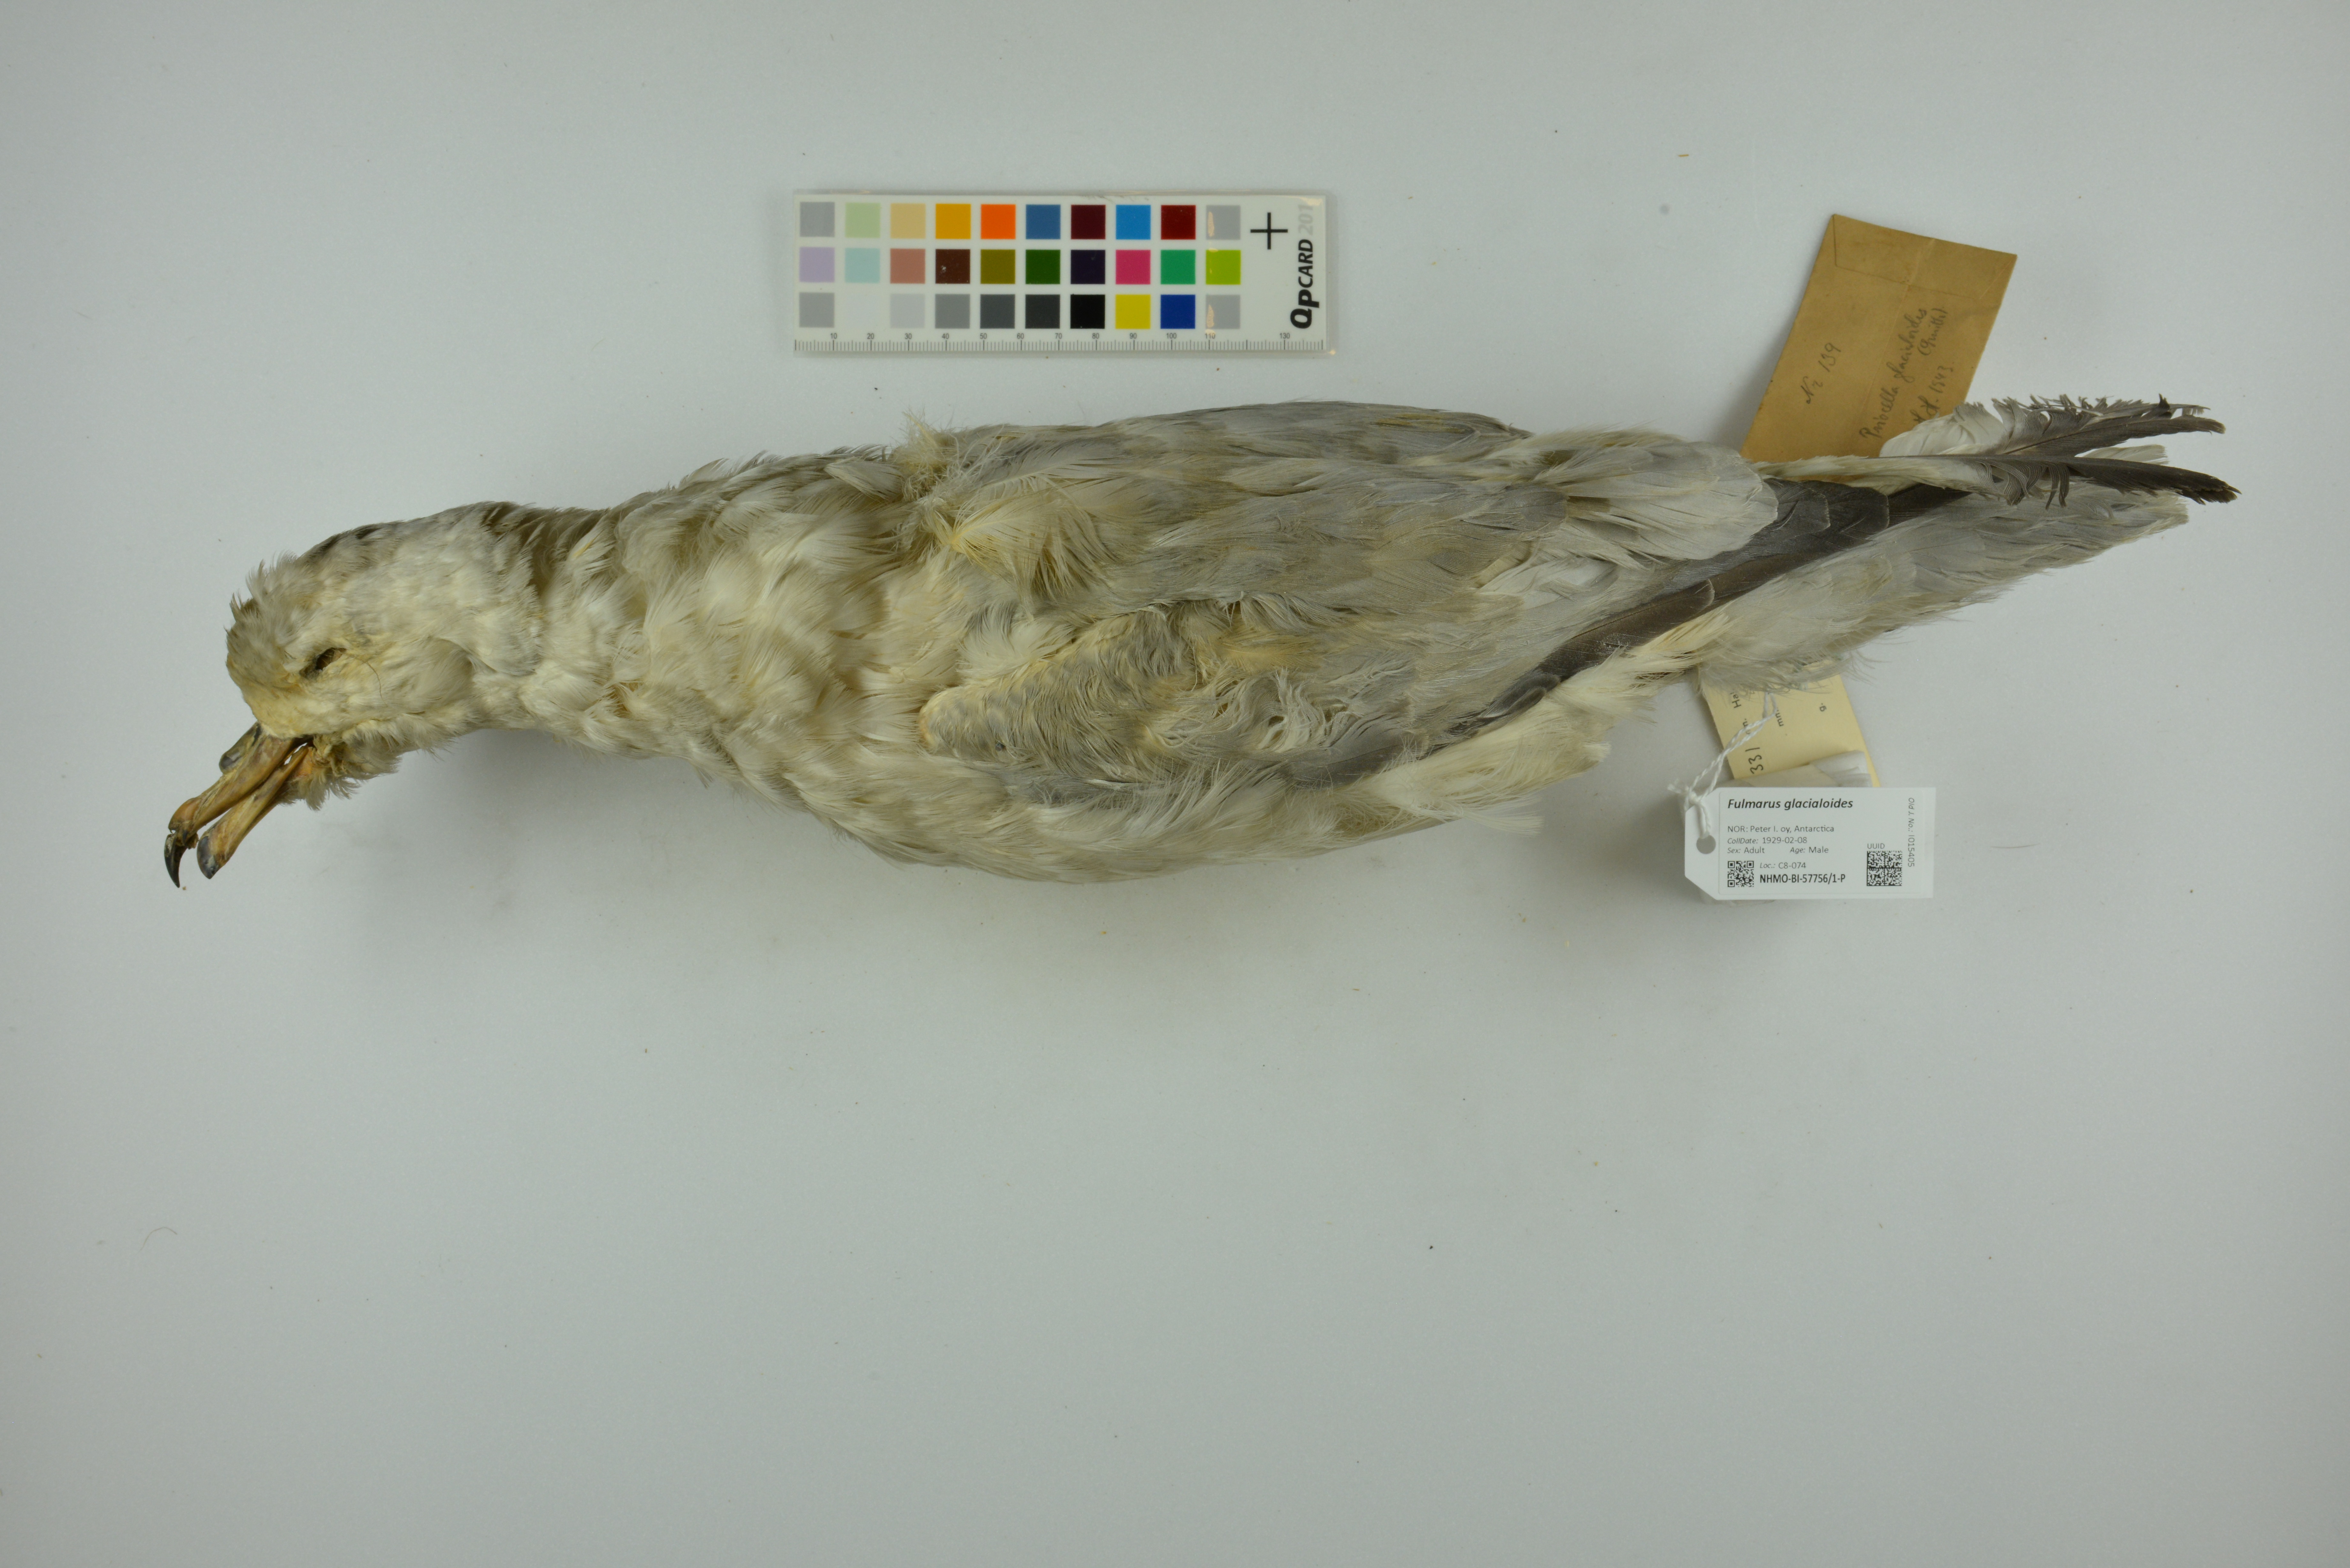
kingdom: Animalia
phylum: Chordata
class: Aves
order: Procellariiformes
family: Procellariidae
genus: Fulmarus
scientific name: Fulmarus glacialoides
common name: Southern fulmar
